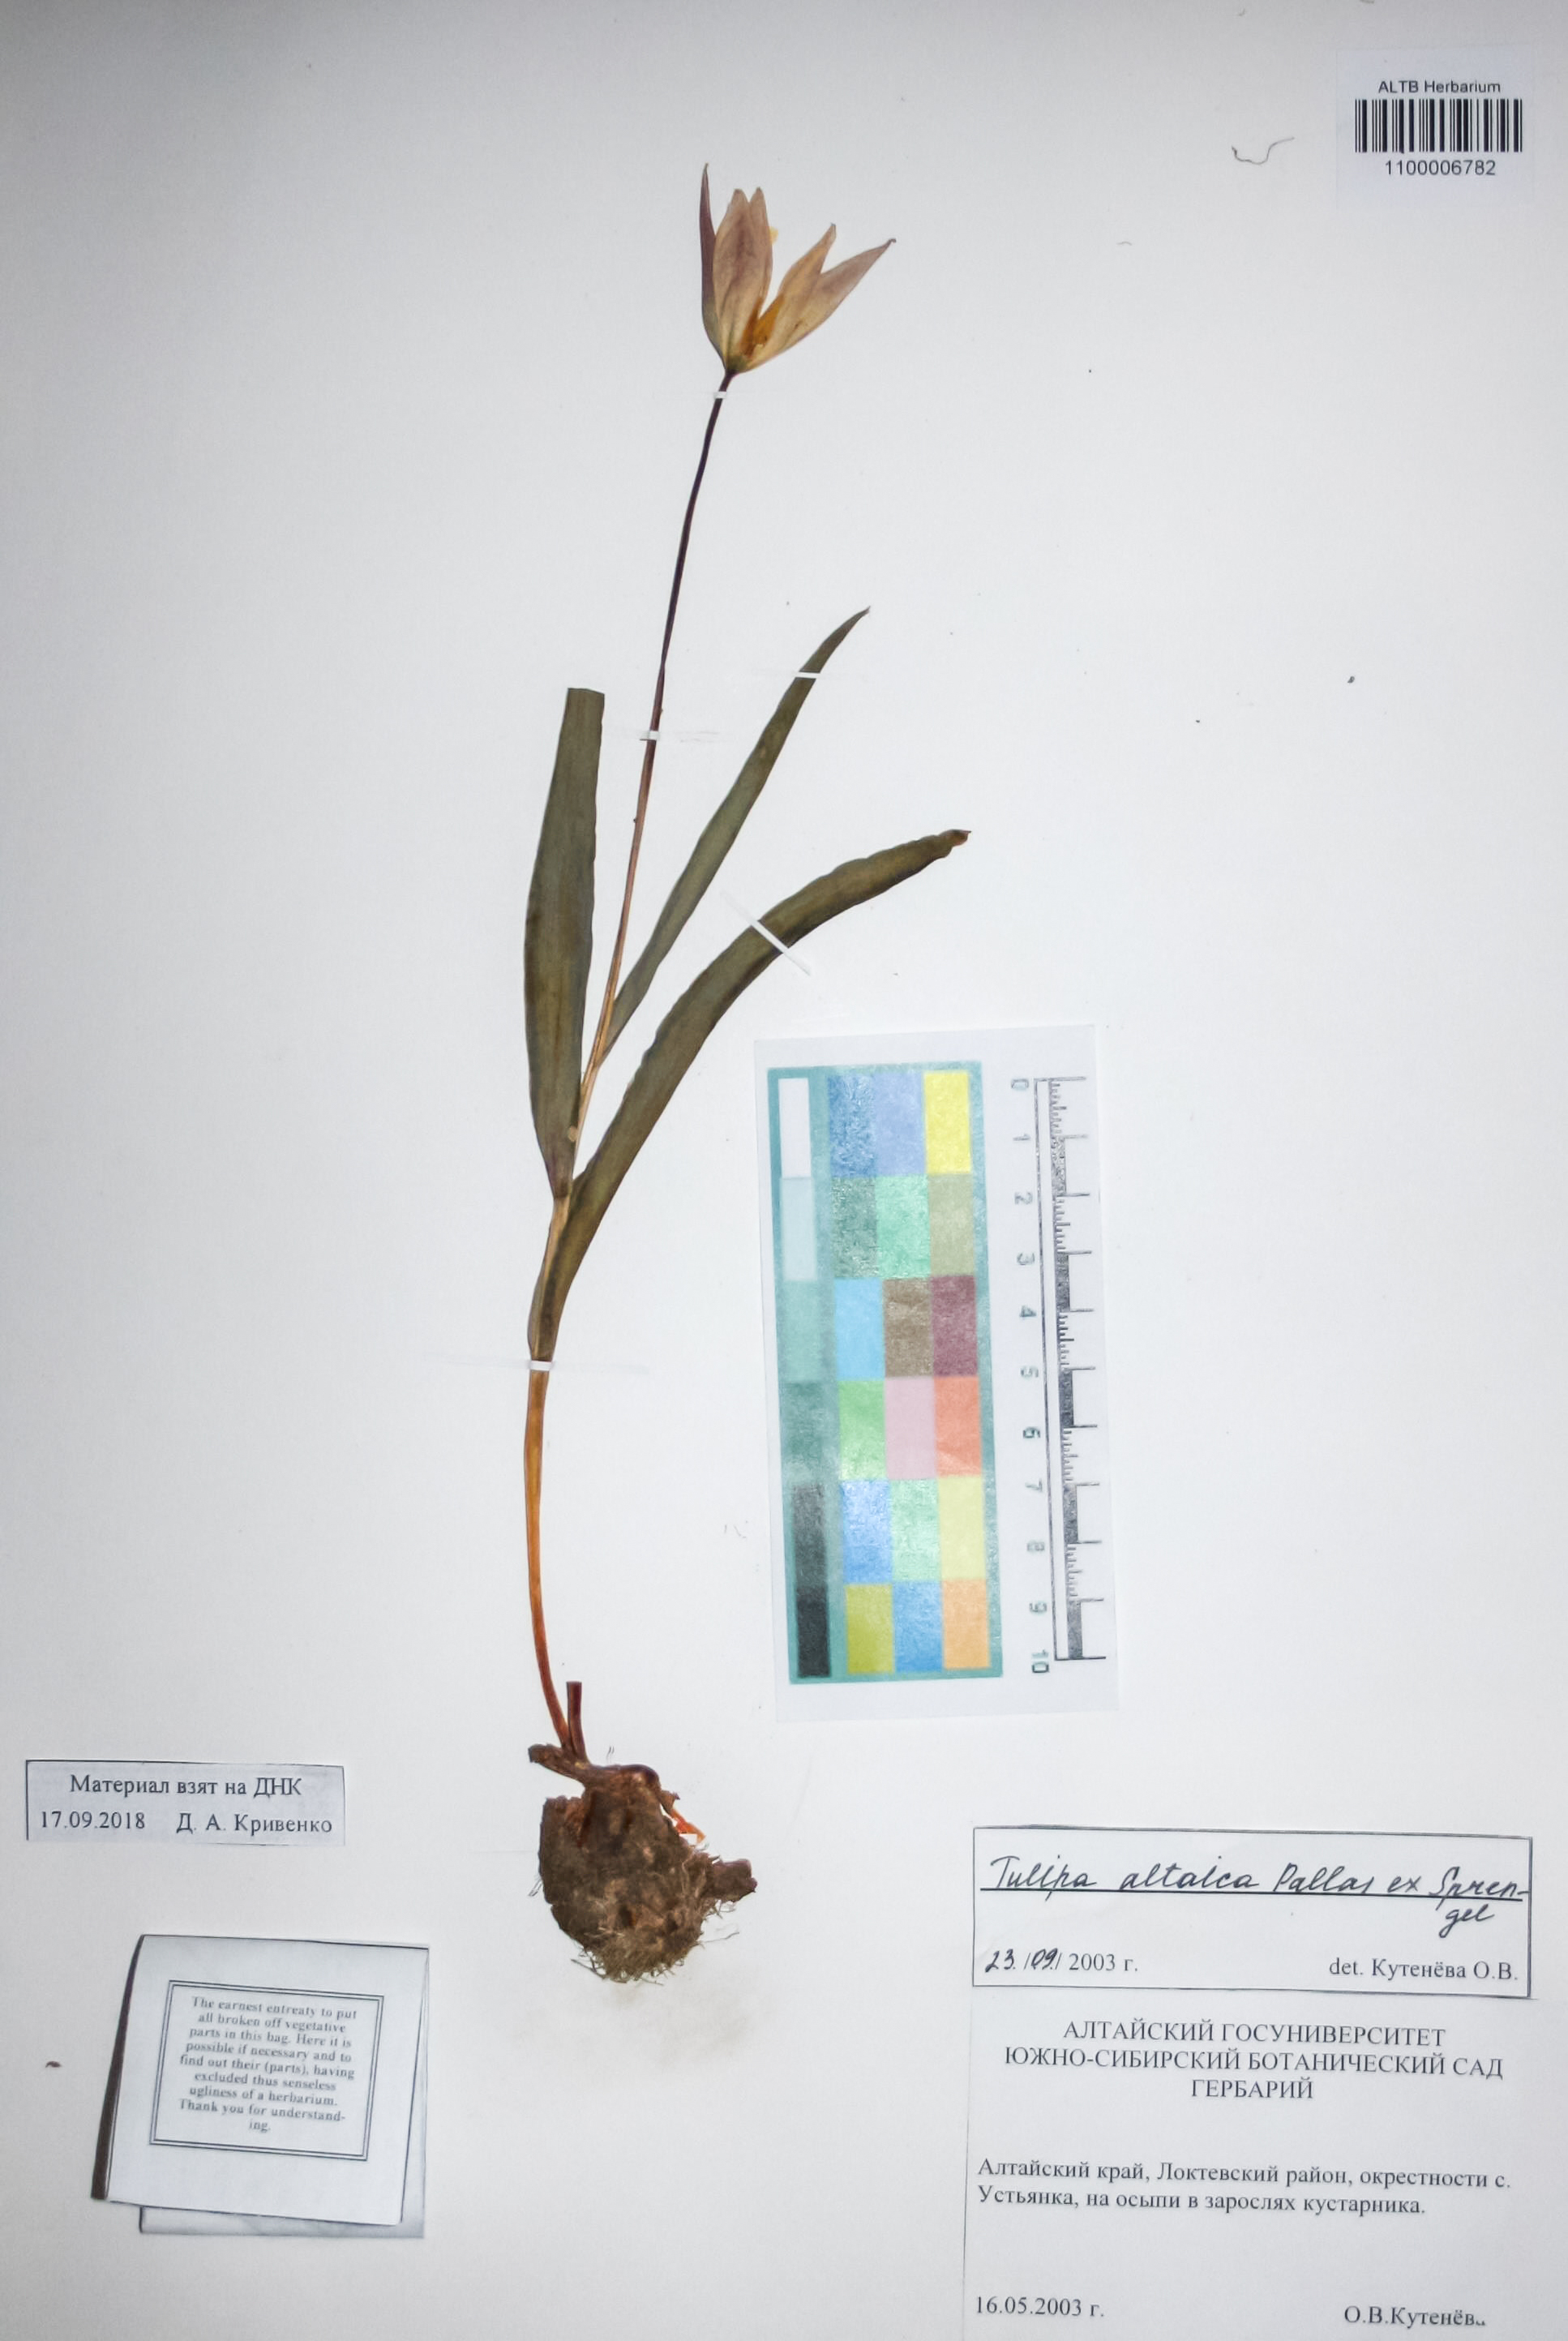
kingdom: Plantae
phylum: Tracheophyta
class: Liliopsida
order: Liliales
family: Liliaceae
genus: Tulipa
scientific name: Tulipa altaica
